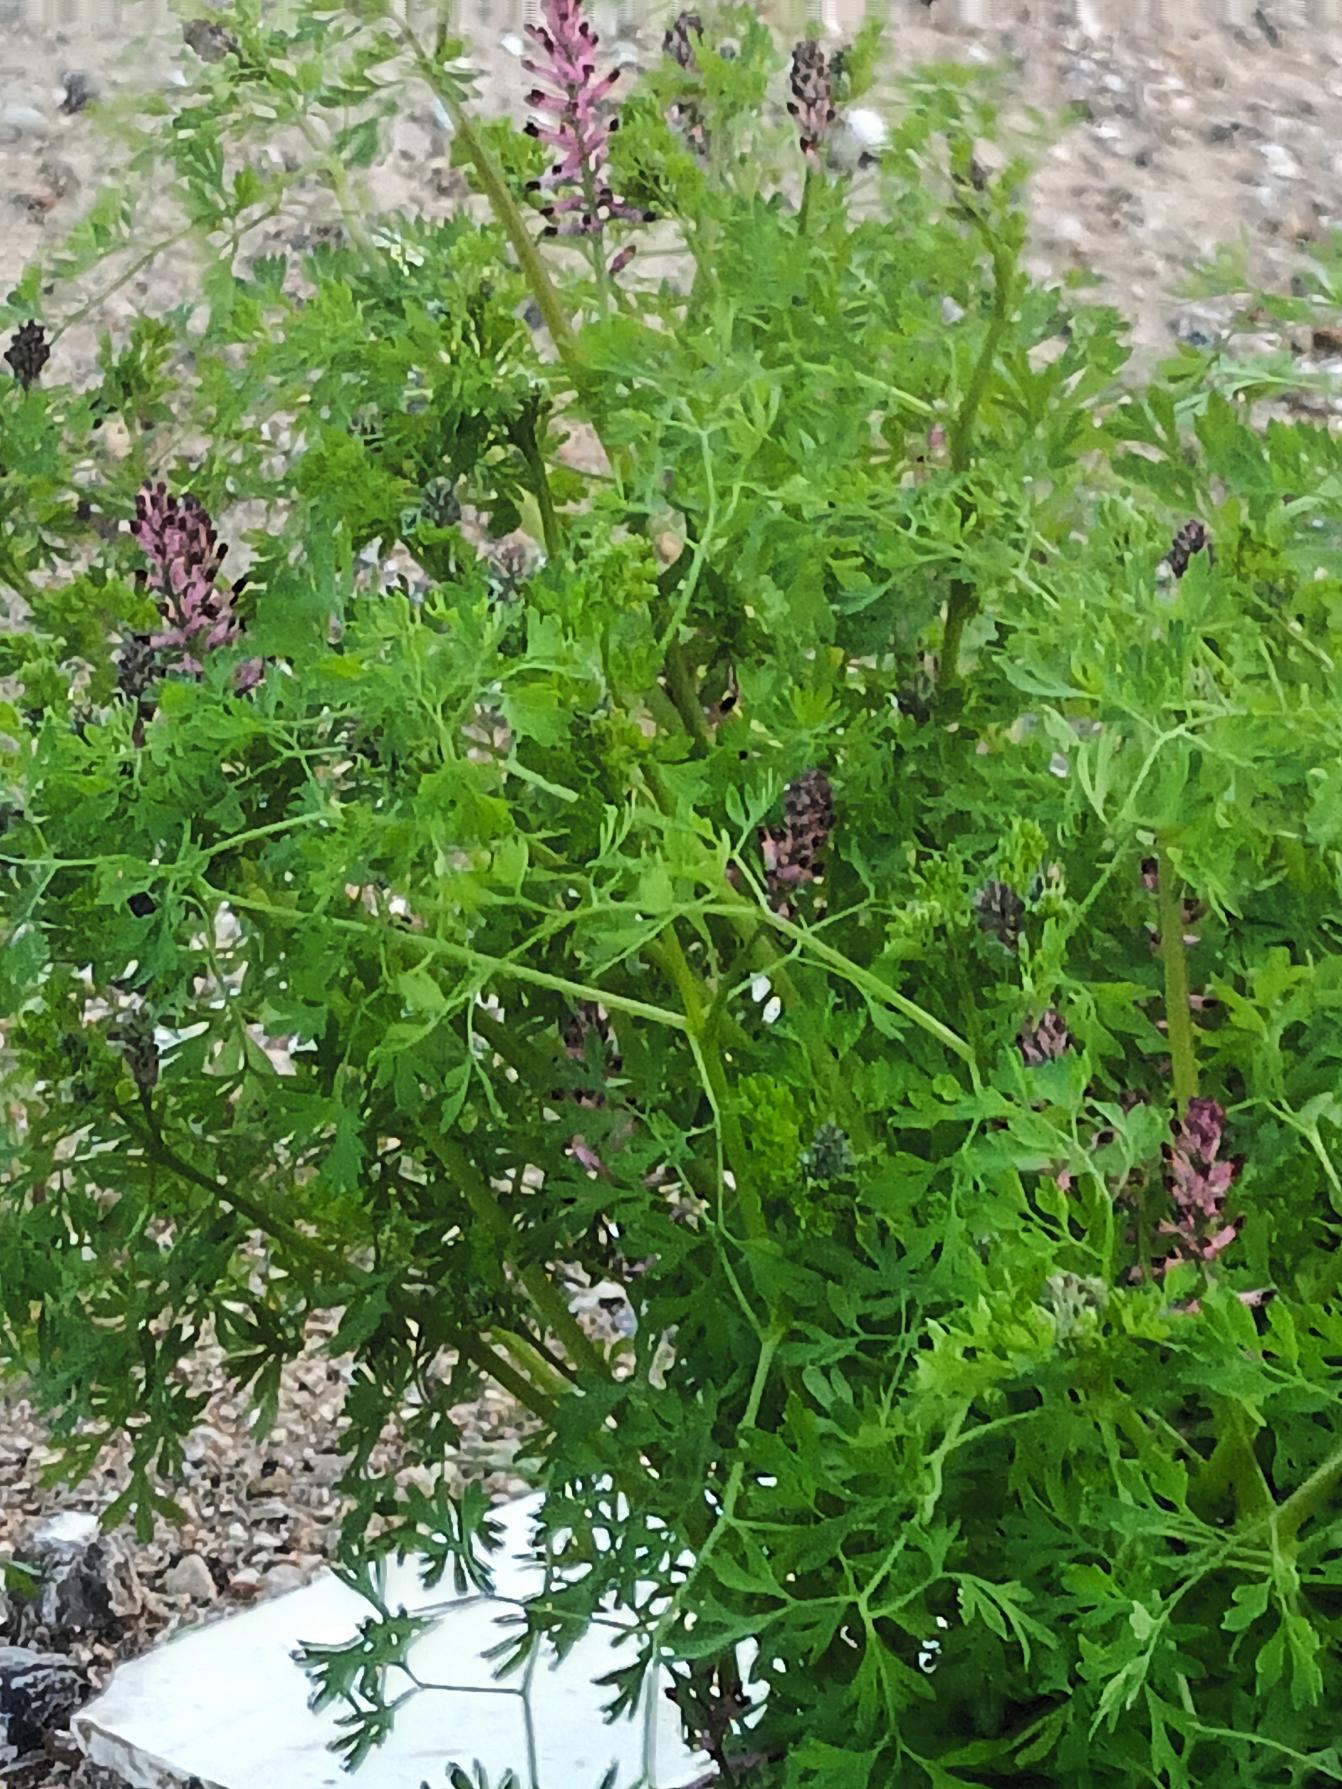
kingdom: Plantae
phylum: Tracheophyta
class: Magnoliopsida
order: Ranunculales
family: Papaveraceae
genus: Fumaria
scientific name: Fumaria officinalis
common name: Læge-jordrøg
